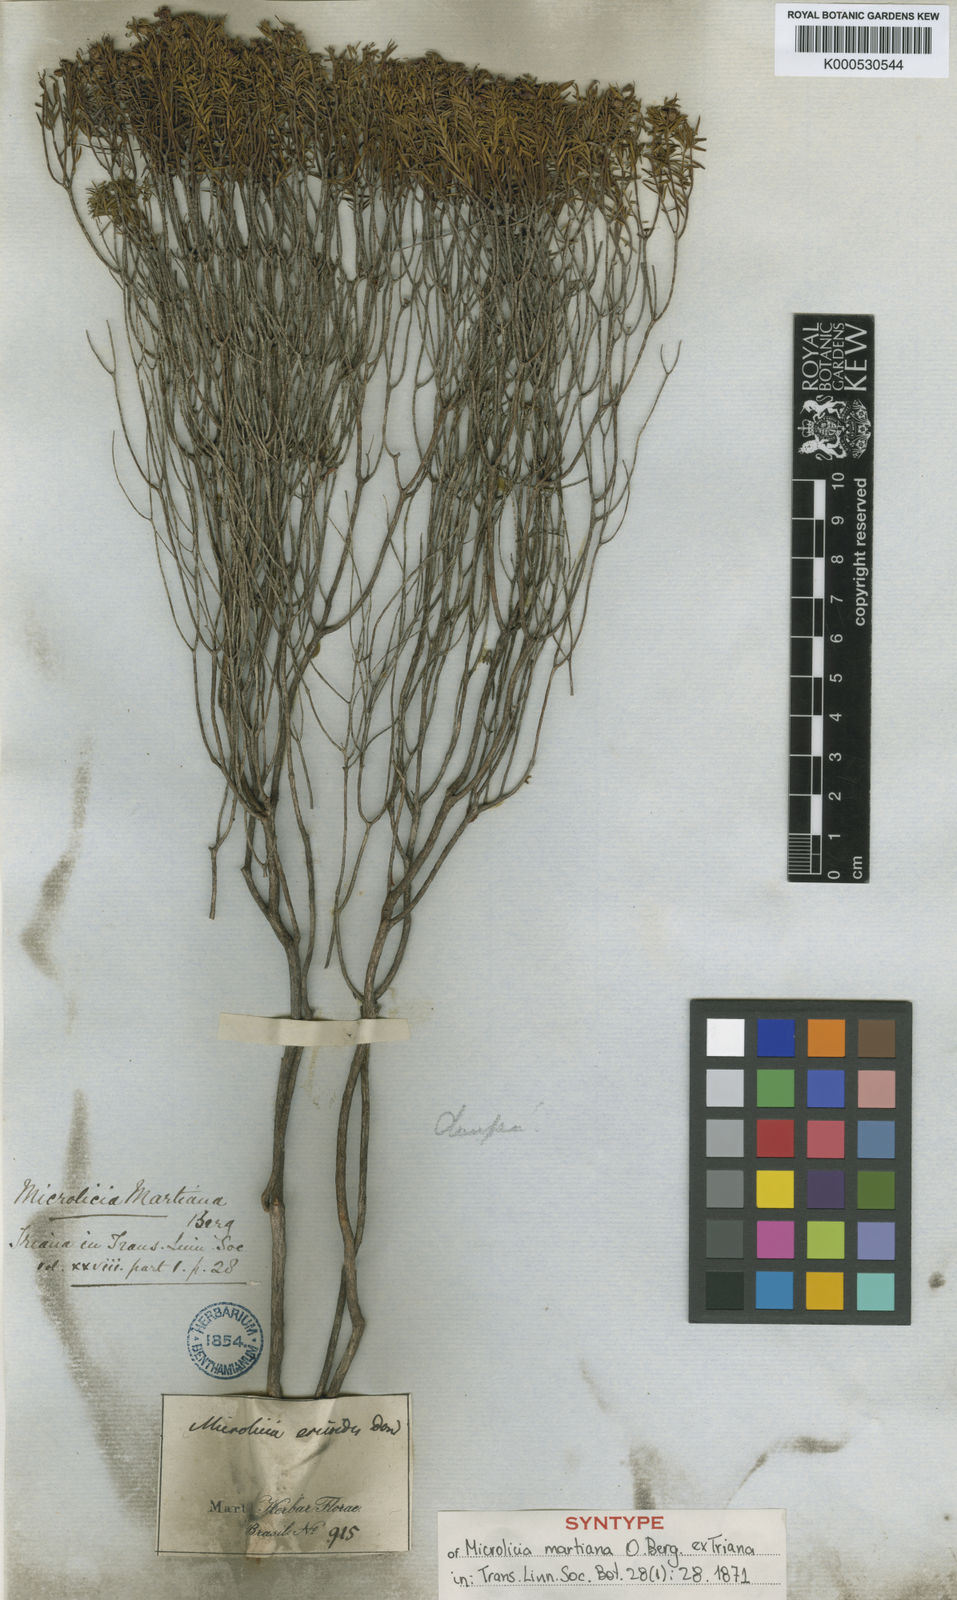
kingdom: Plantae
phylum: Tracheophyta
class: Magnoliopsida
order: Myrtales
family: Melastomataceae
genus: Microlicia
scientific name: Microlicia martiana
